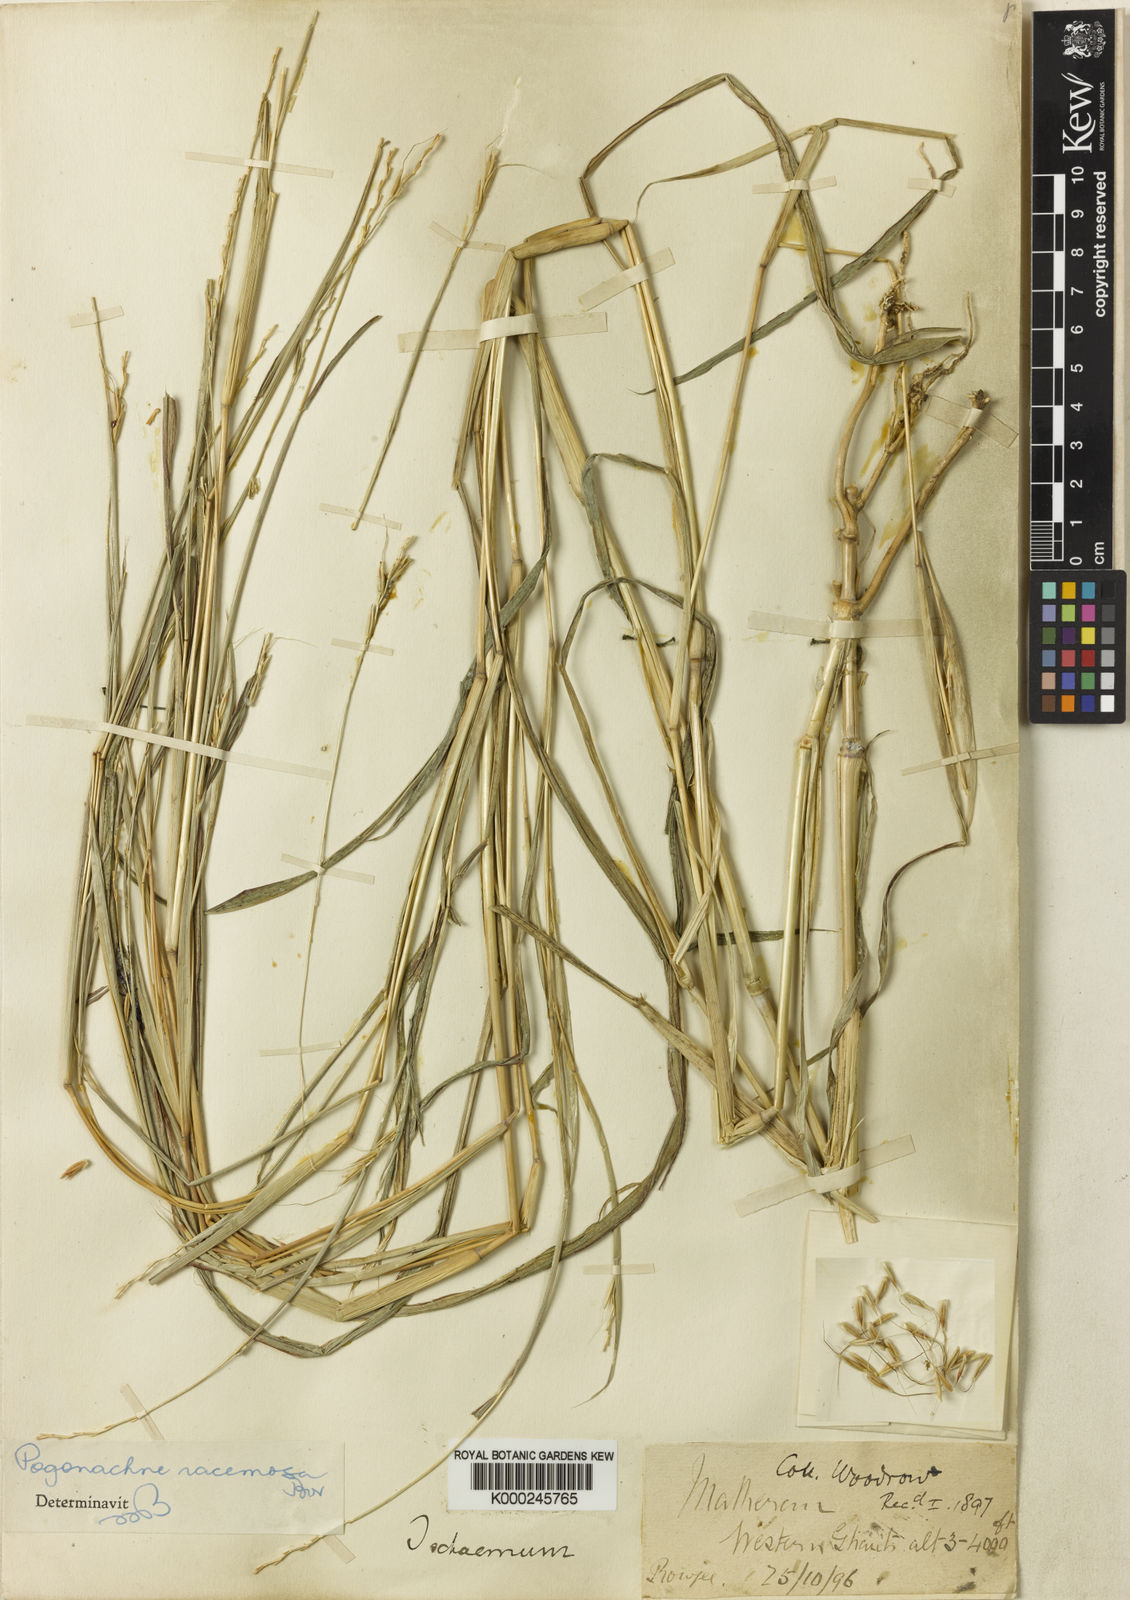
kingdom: Plantae
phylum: Tracheophyta
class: Liliopsida
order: Poales
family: Poaceae
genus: Pogonachne
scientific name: Pogonachne racemosa
